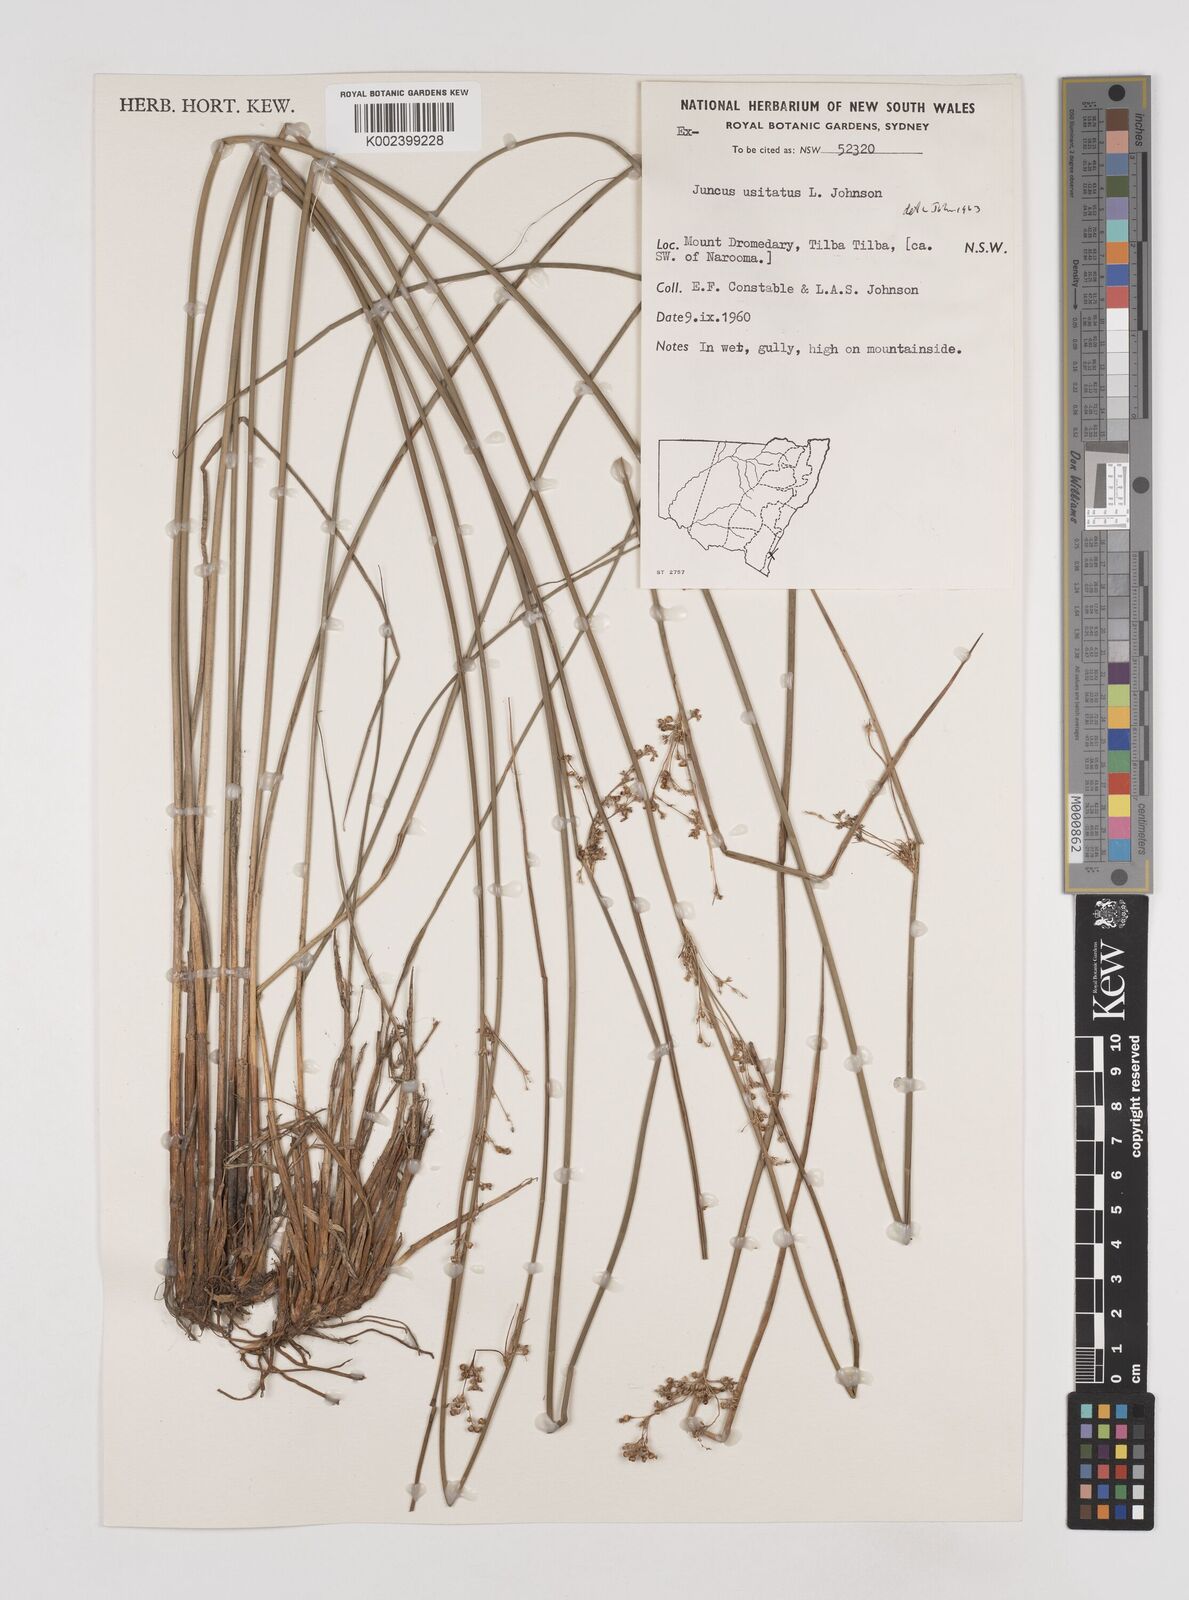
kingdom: Plantae
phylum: Tracheophyta
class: Liliopsida
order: Poales
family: Juncaceae
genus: Juncus
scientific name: Juncus usitatus
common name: Rush
